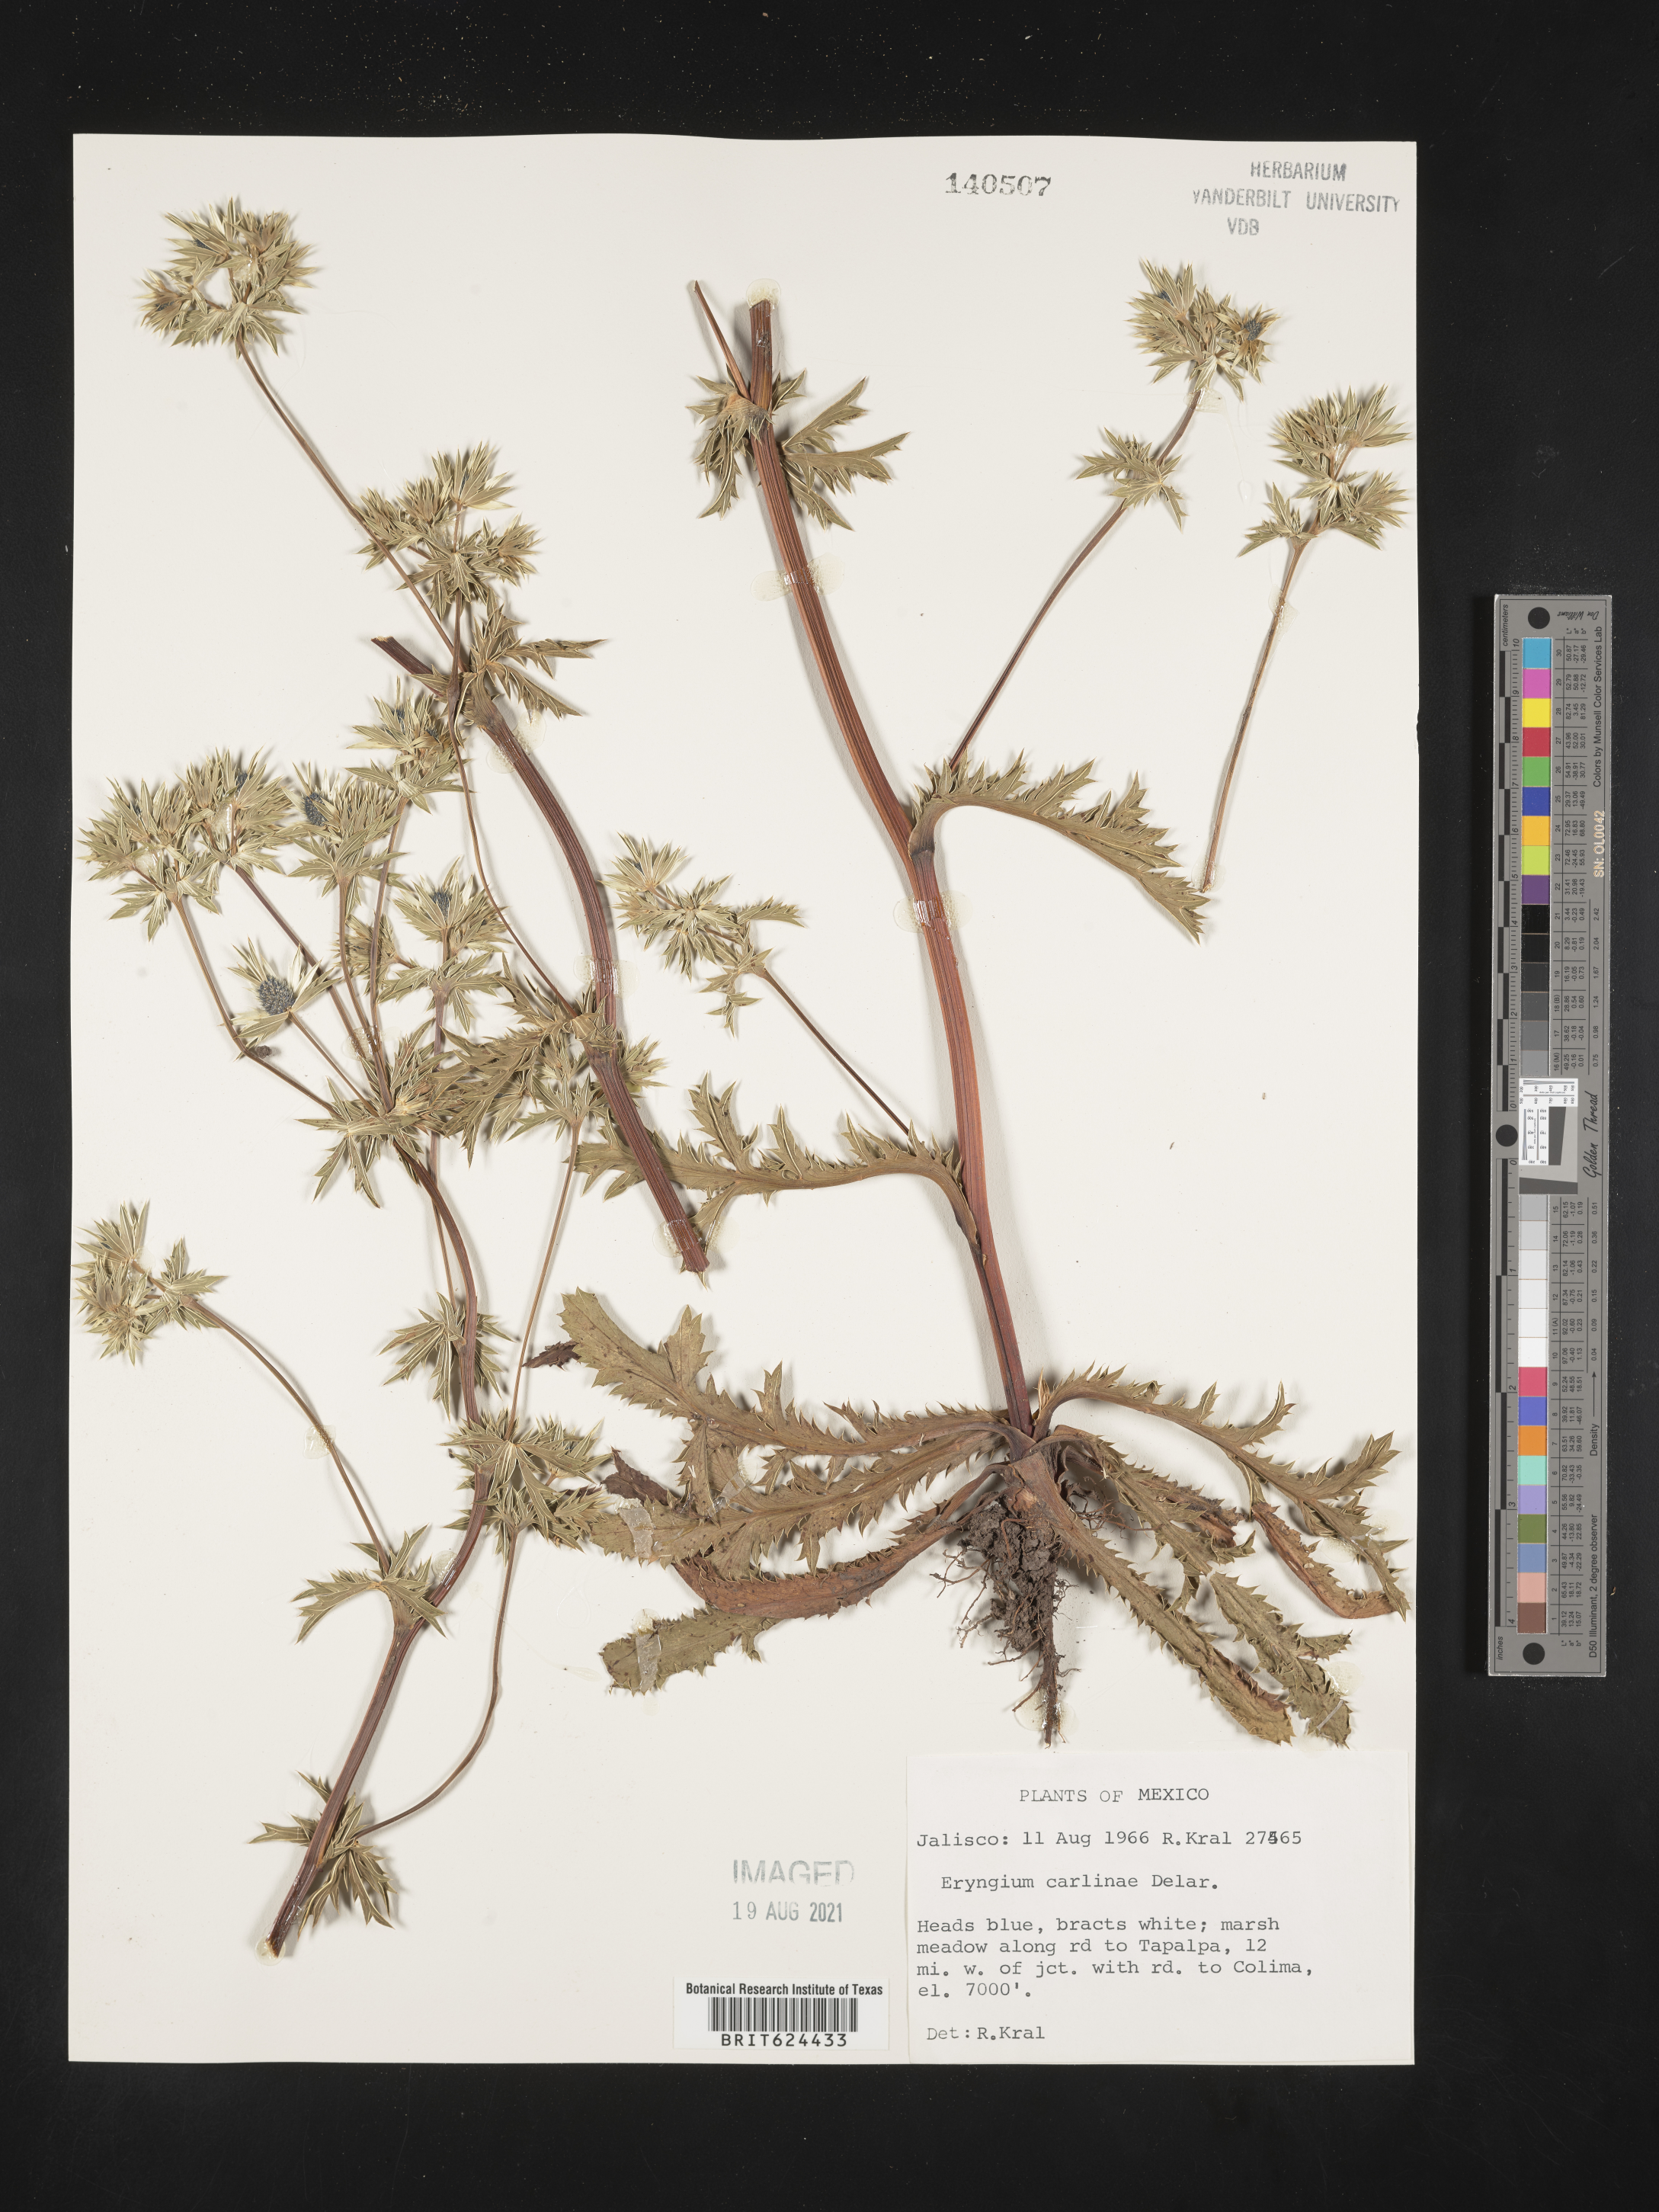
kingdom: Plantae
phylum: Tracheophyta
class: Magnoliopsida
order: Apiales
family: Apiaceae
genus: Eryngium
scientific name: Eryngium
